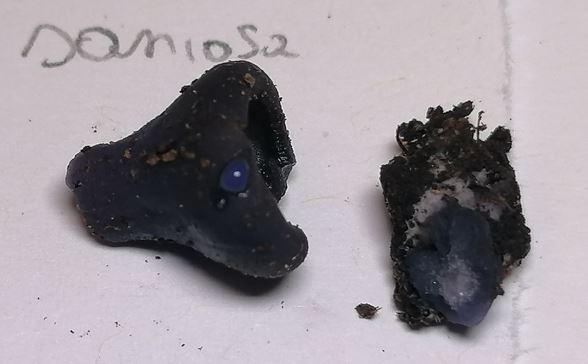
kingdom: Fungi
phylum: Ascomycota
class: Pezizomycetes
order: Pezizales
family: Pezizaceae
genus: Peziza
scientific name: Peziza saniosa
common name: blåmælket bægersvamp
